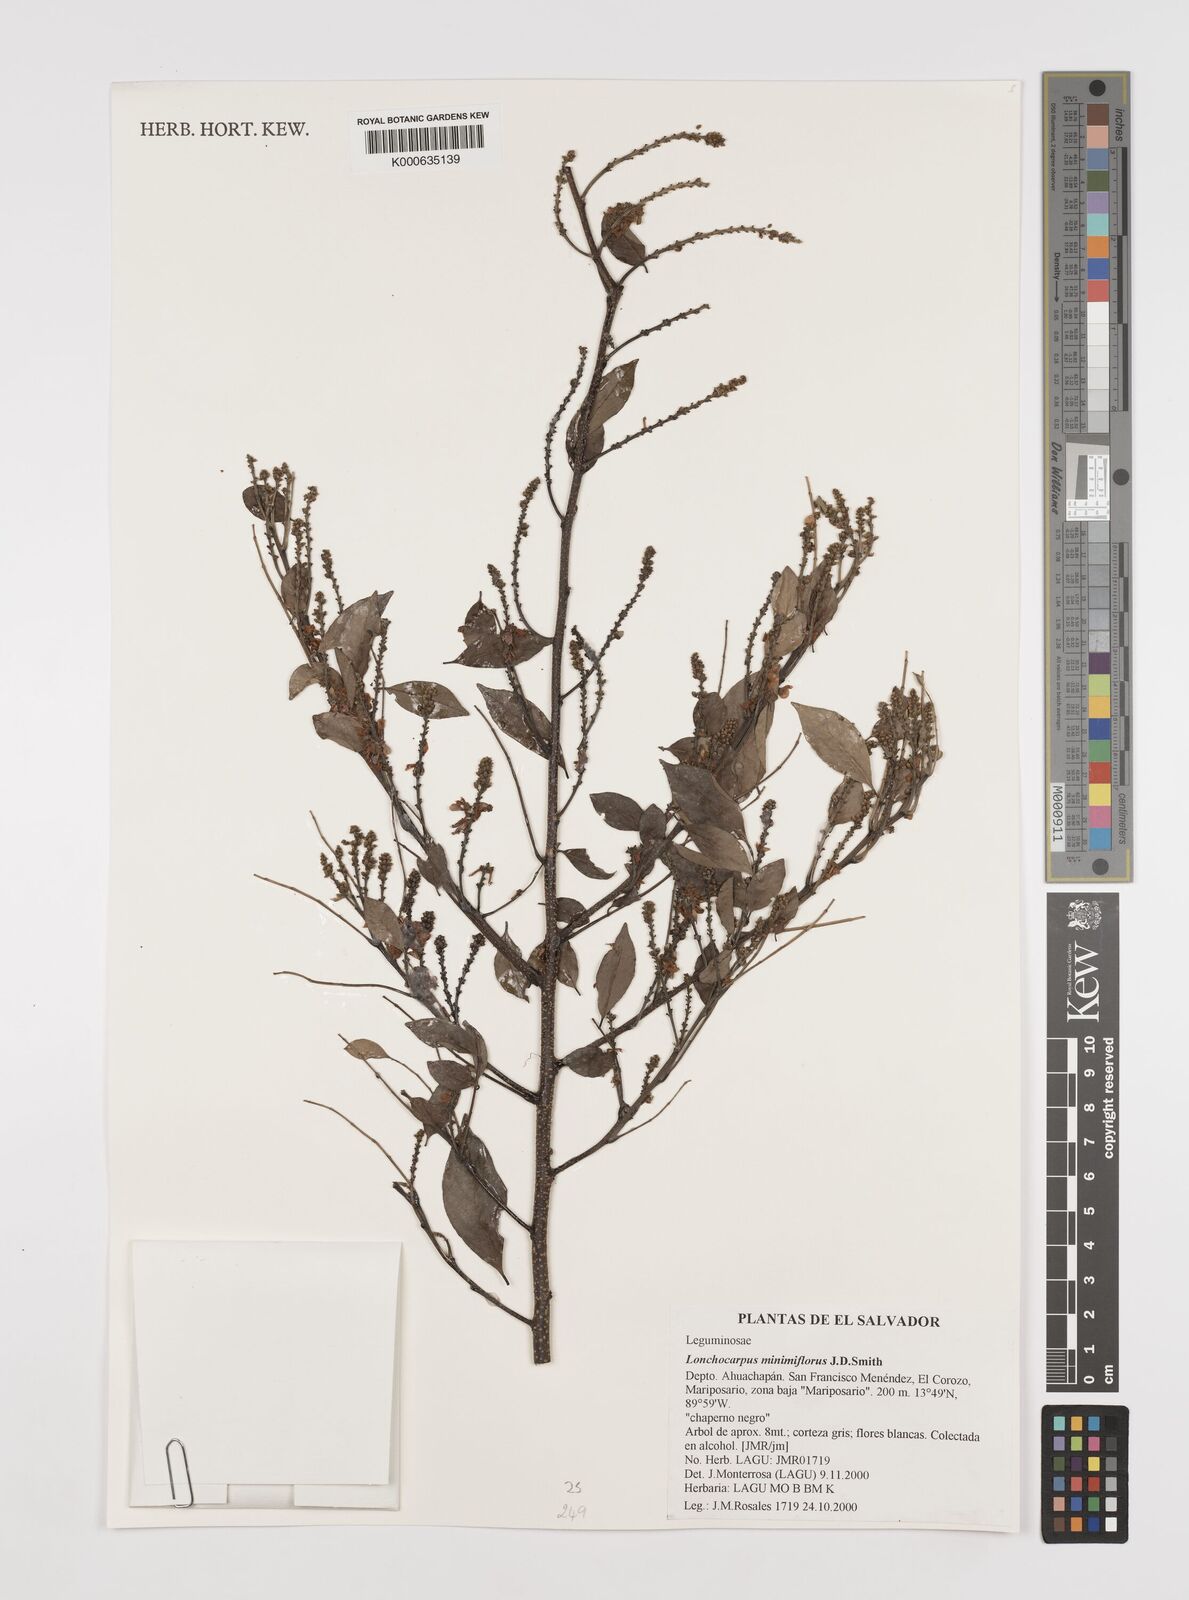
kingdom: Plantae
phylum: Tracheophyta
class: Magnoliopsida
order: Fabales
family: Fabaceae
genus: Lonchocarpus
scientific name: Lonchocarpus
